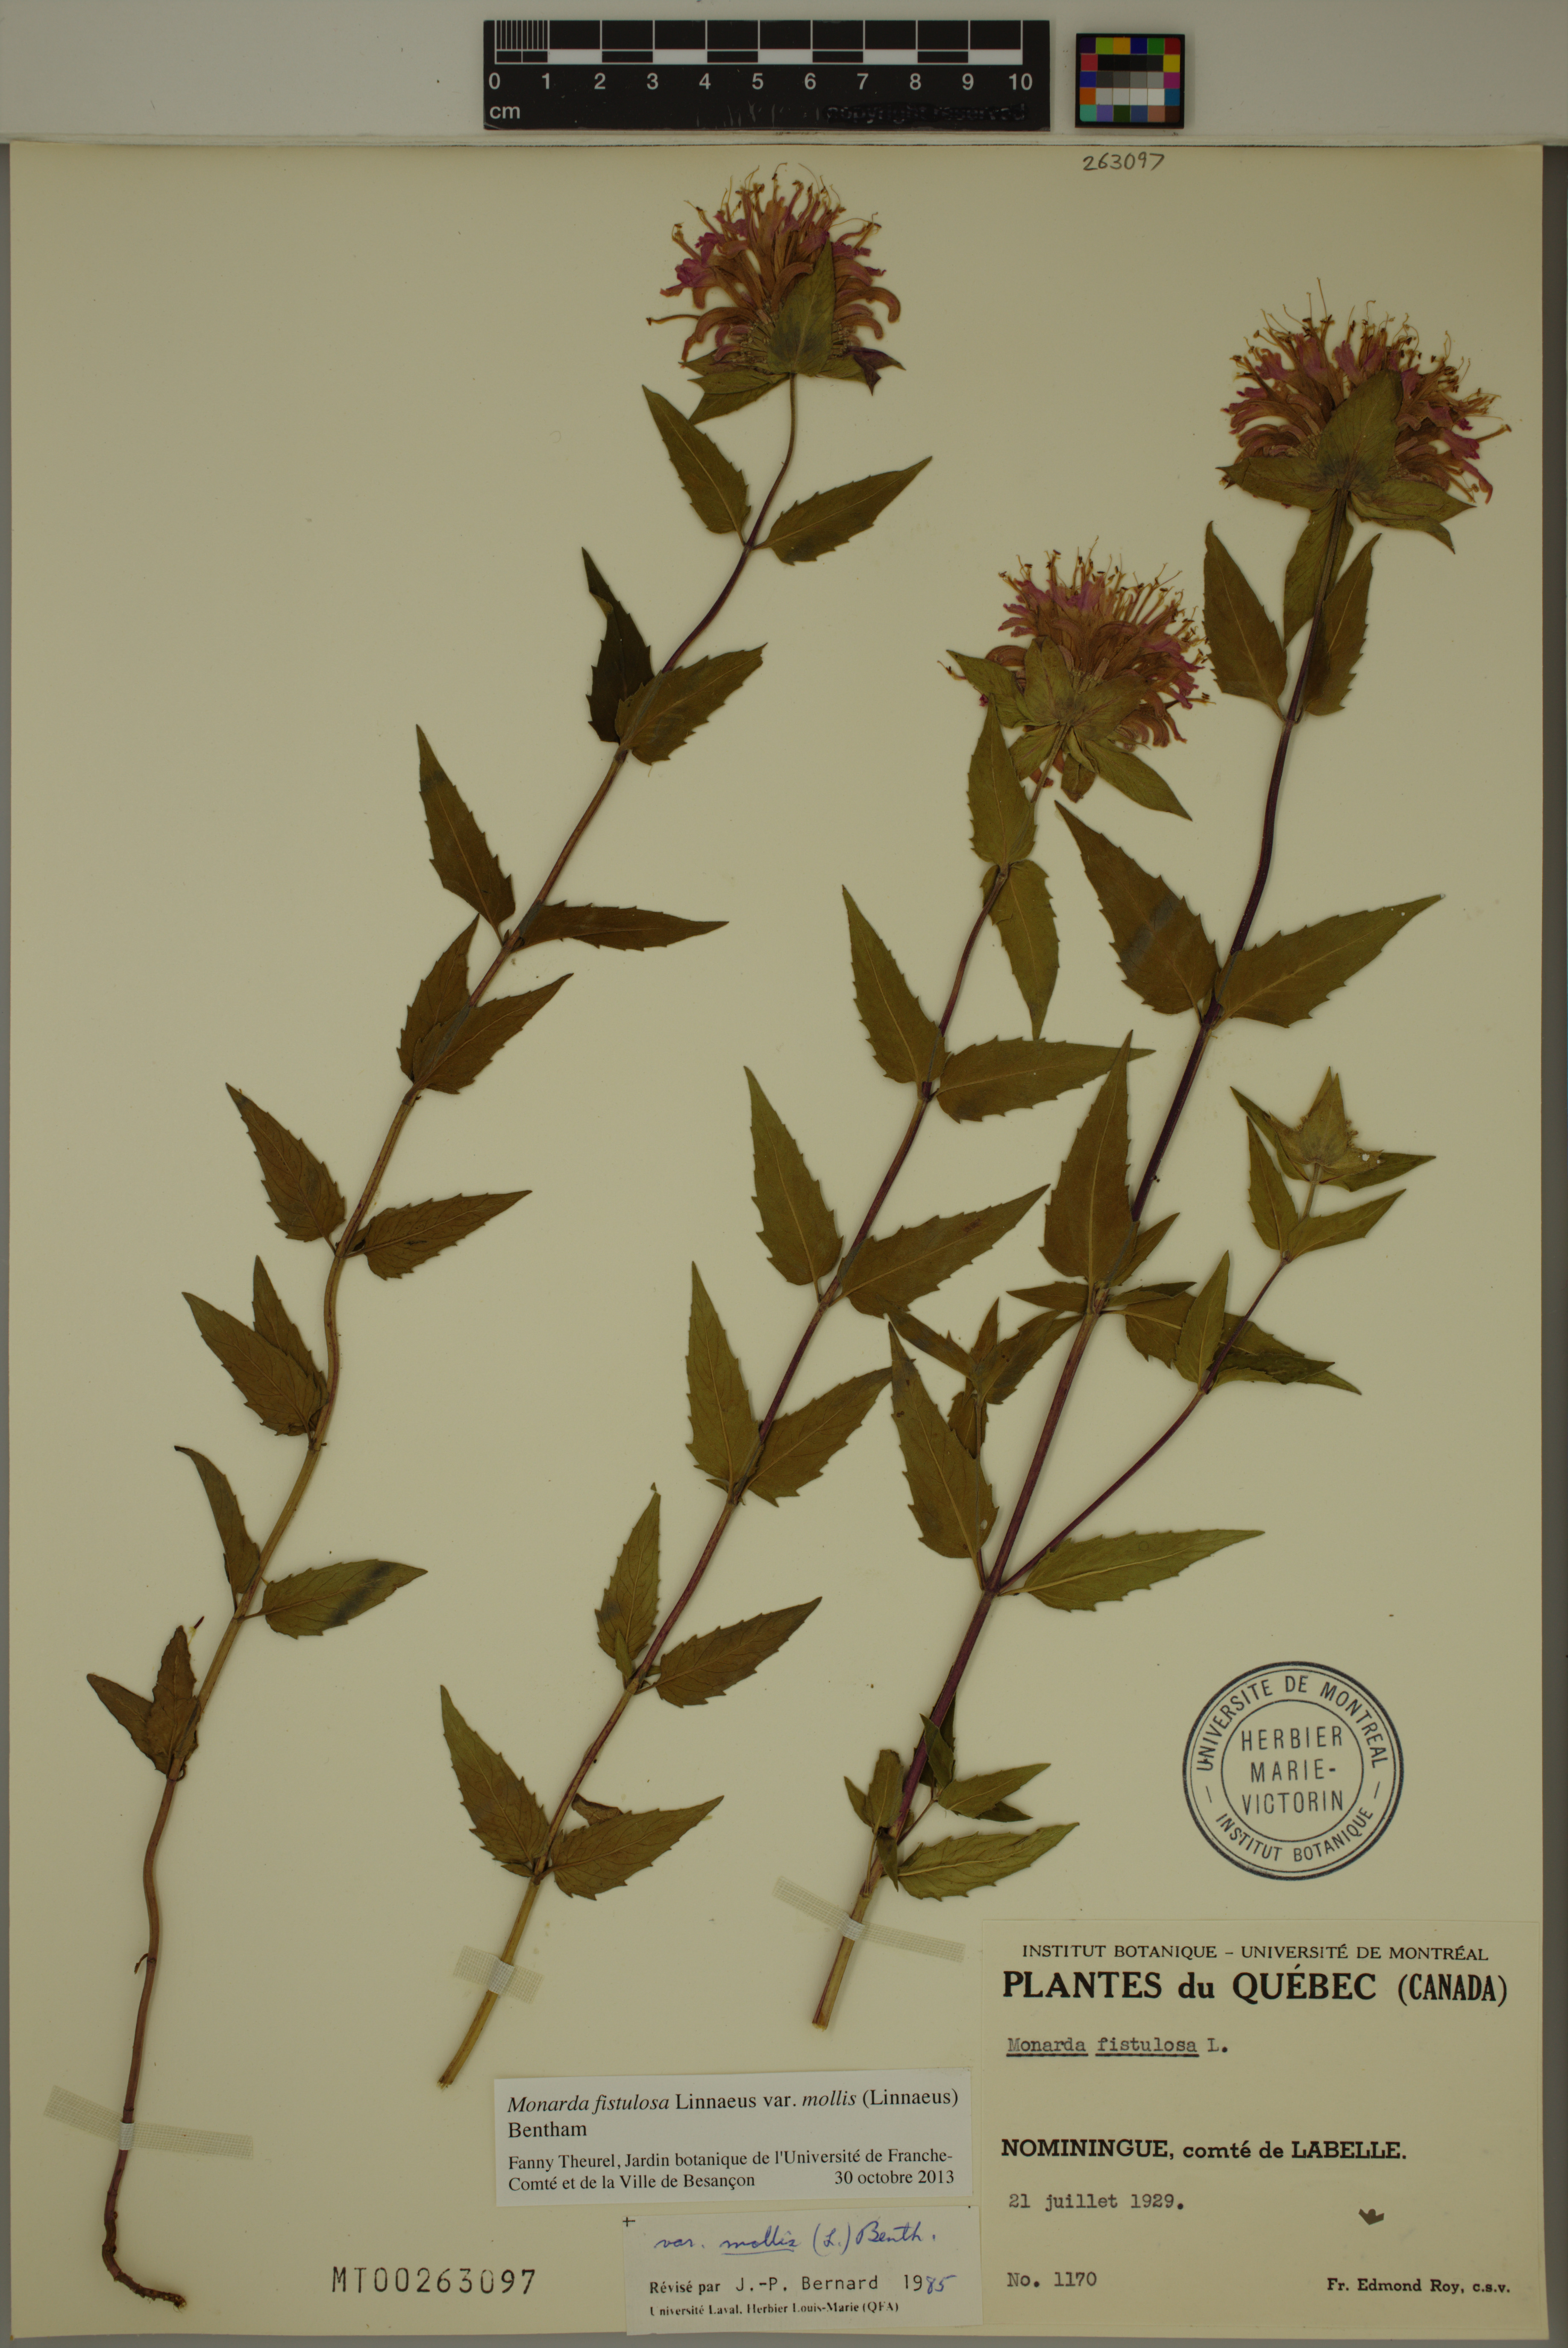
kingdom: Plantae
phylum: Tracheophyta
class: Magnoliopsida
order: Lamiales
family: Lamiaceae
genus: Monarda
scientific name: Monarda fistulosa
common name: Purple beebalm
